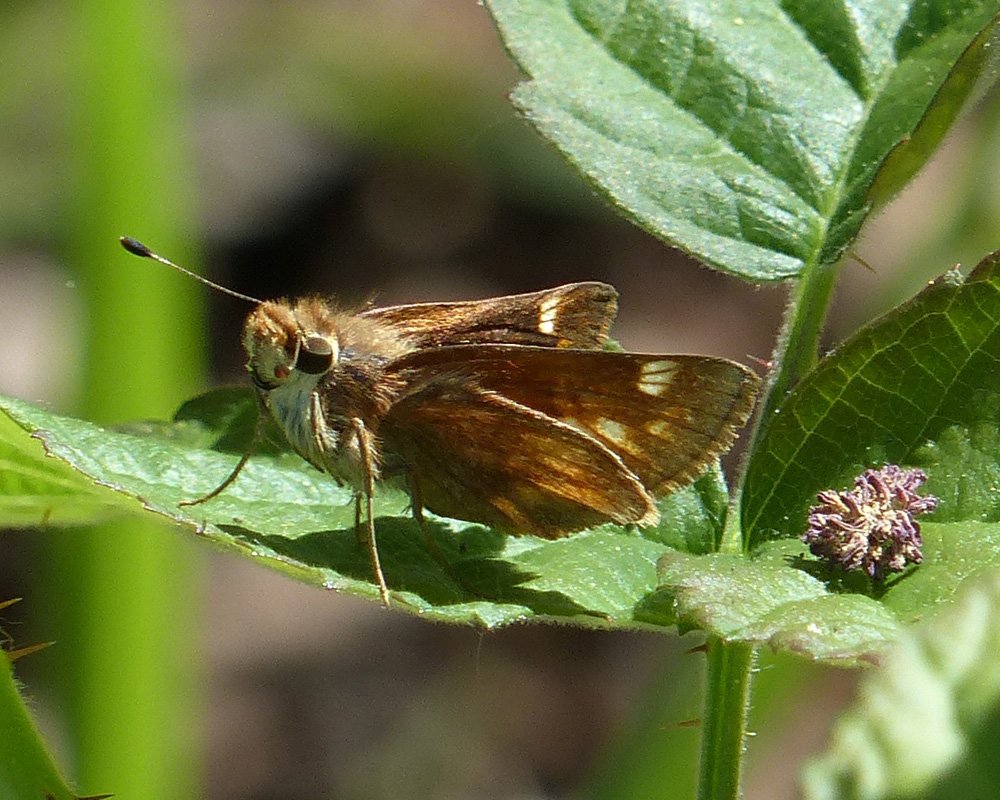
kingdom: Animalia
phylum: Arthropoda
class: Insecta
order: Lepidoptera
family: Hesperiidae
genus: Lon
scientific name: Lon melane
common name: Umber Skipper
